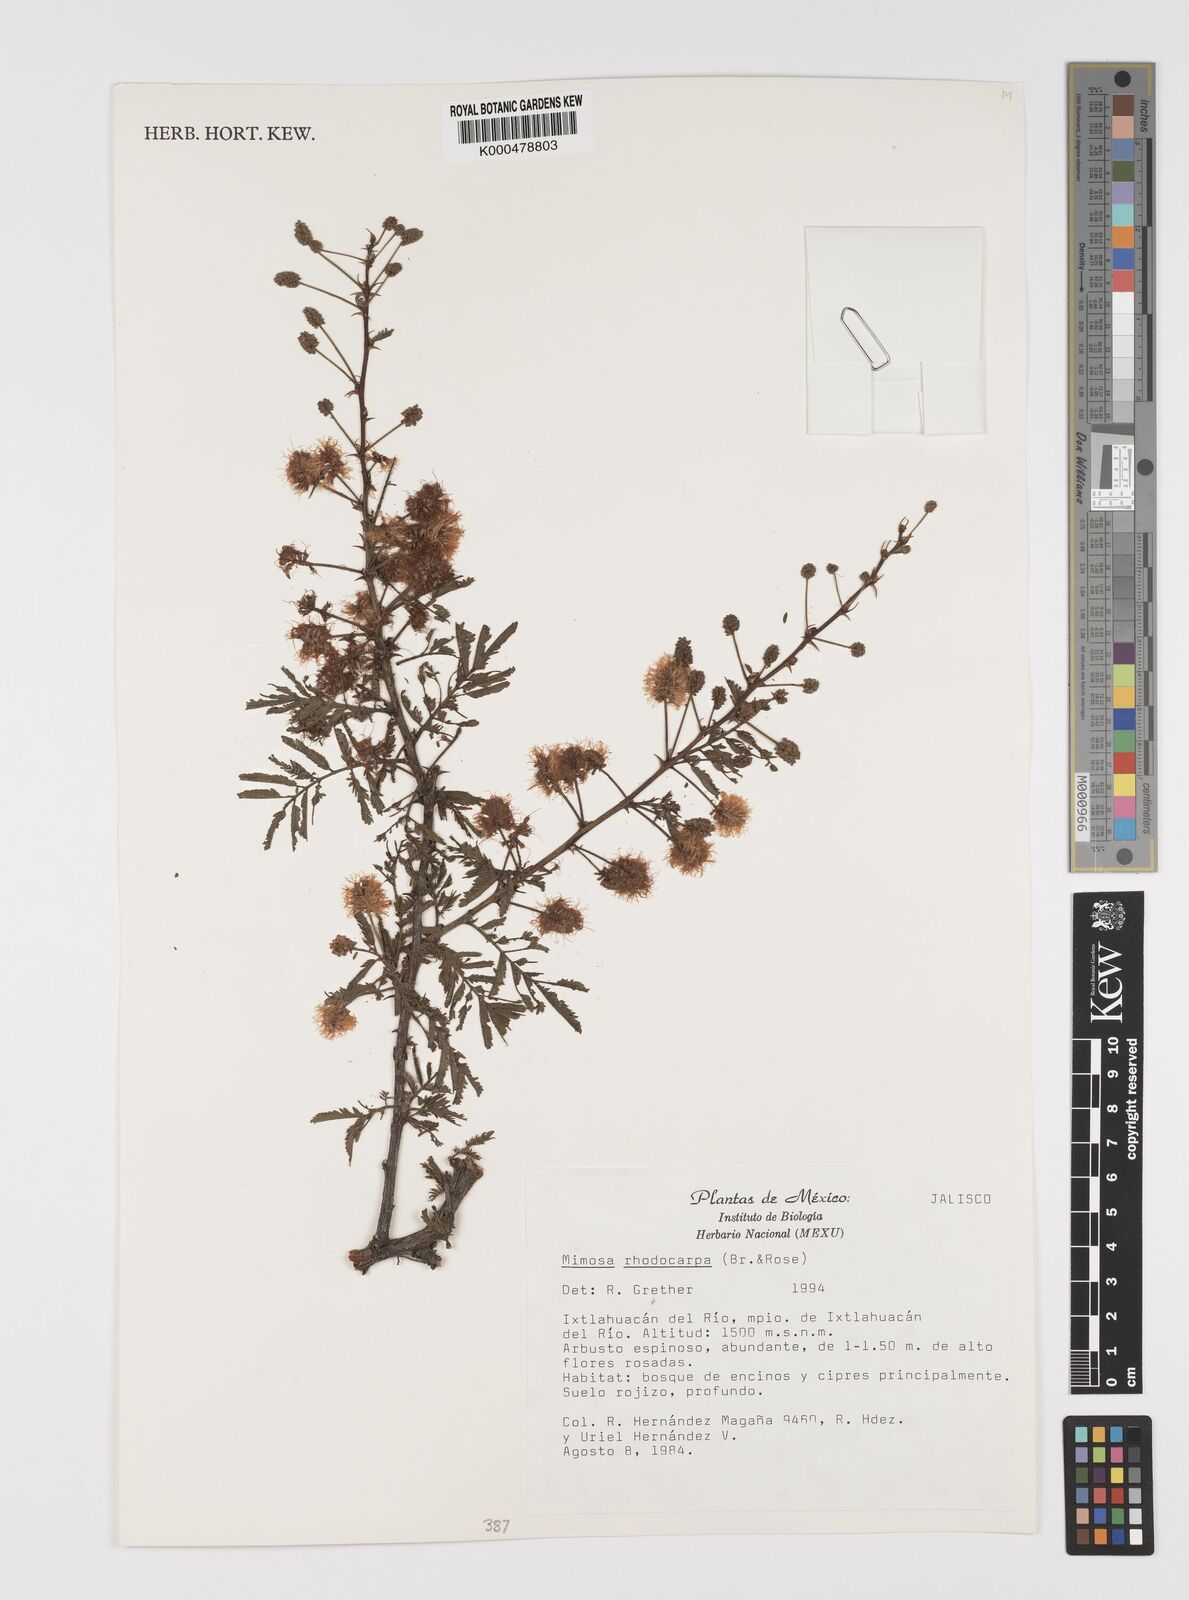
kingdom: Plantae
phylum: Tracheophyta
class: Magnoliopsida
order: Fabales
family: Fabaceae
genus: Mimosa
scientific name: Mimosa rhodocarpa
